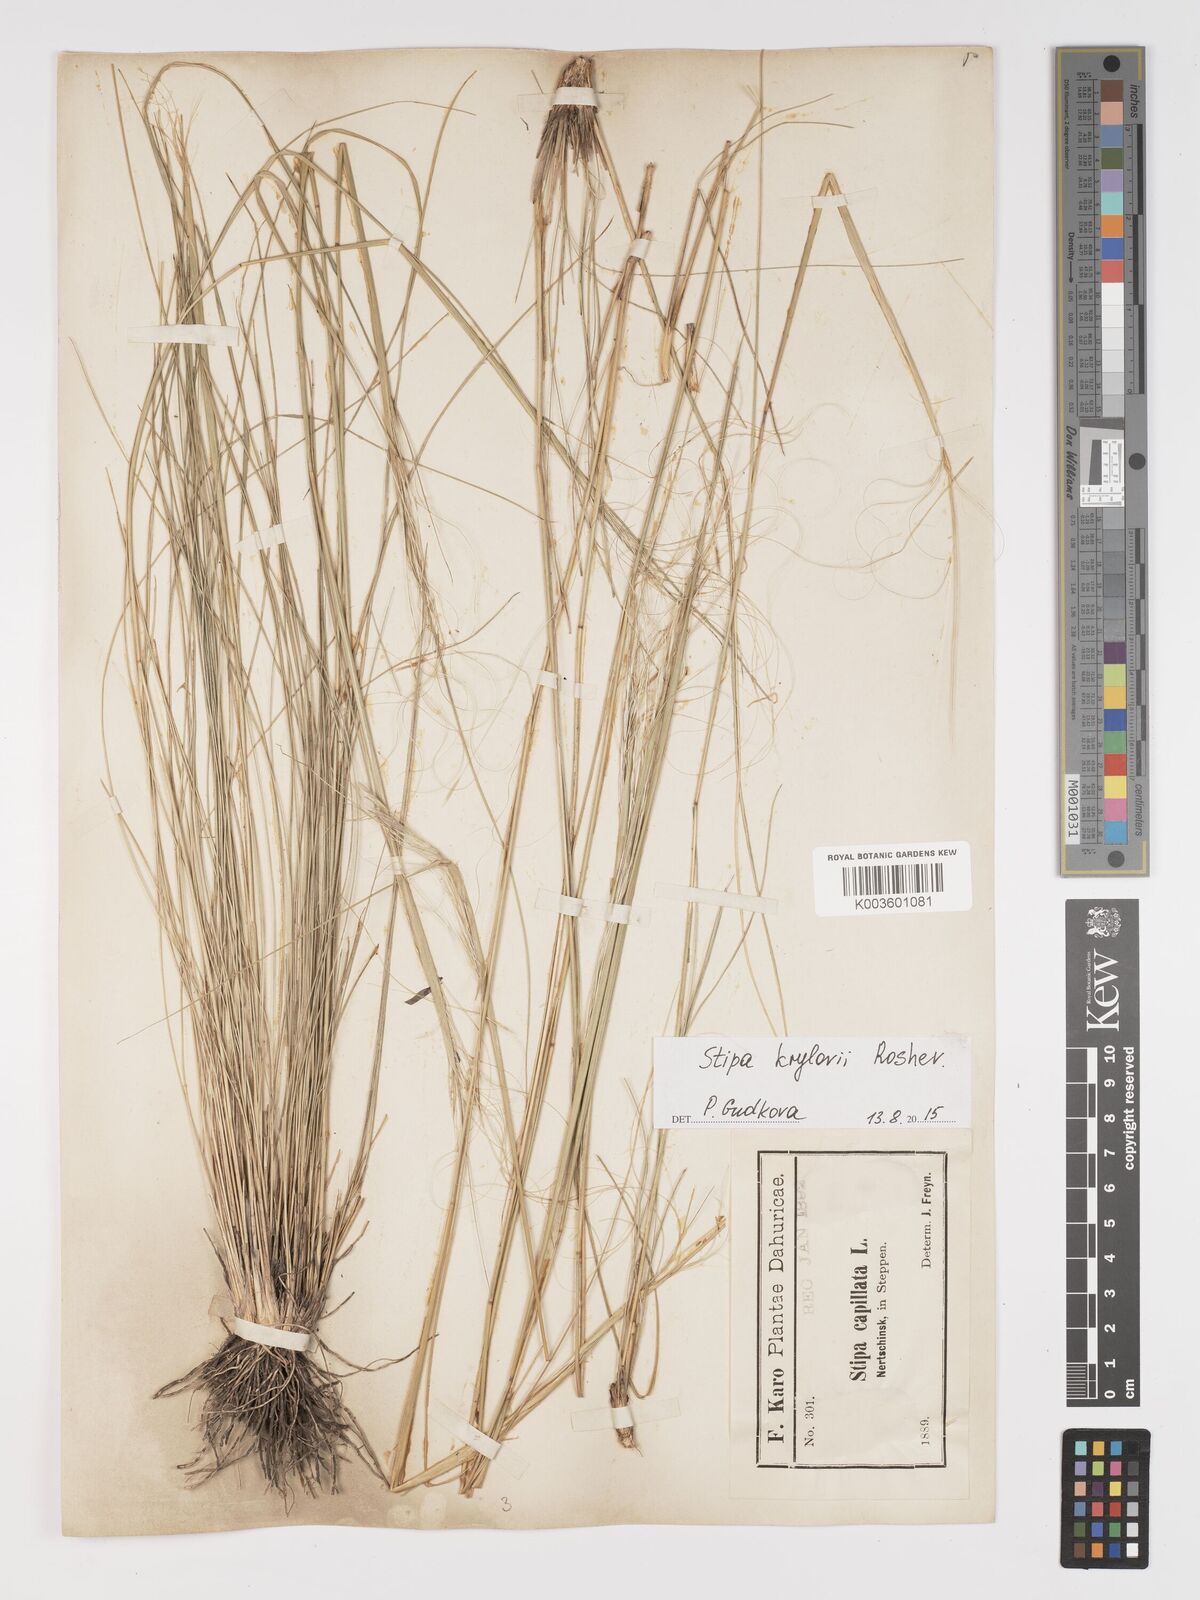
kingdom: Plantae
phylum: Tracheophyta
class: Liliopsida
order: Poales
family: Poaceae
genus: Stipa
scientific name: Stipa krylovii
